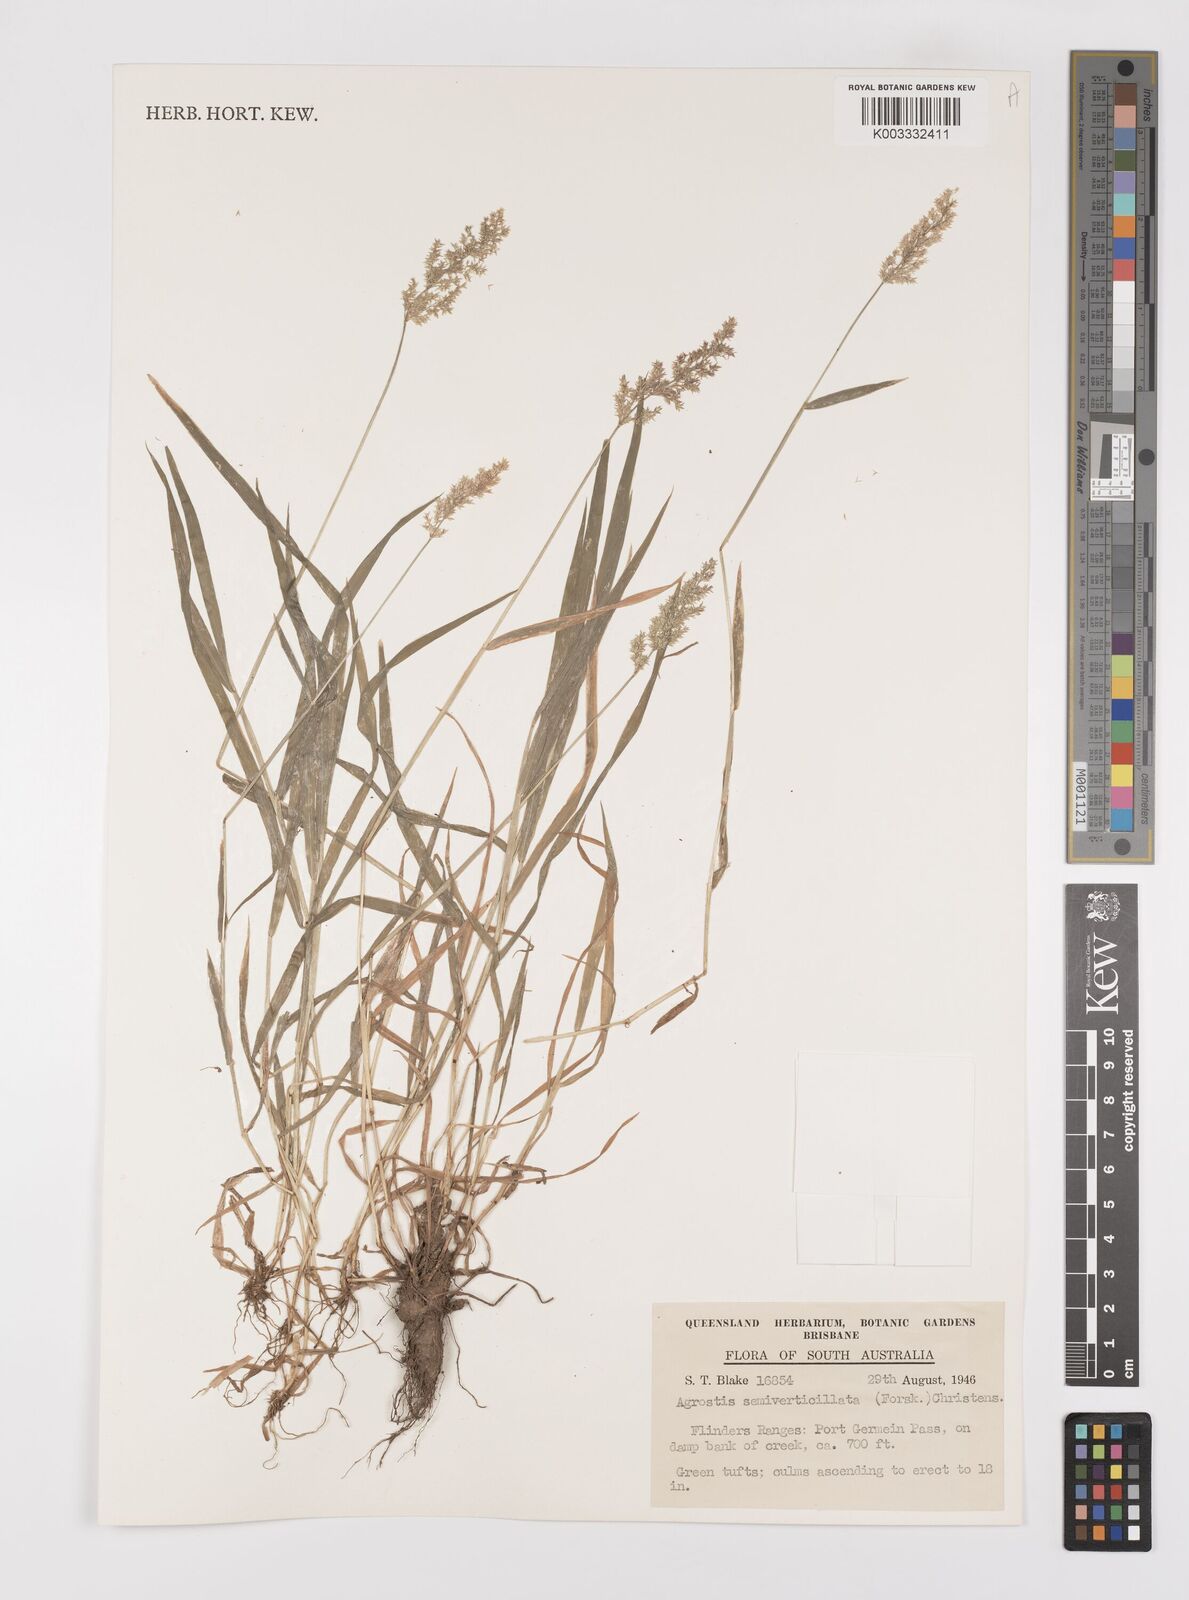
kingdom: Plantae
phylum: Tracheophyta
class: Liliopsida
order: Poales
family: Poaceae
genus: Polypogon
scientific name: Polypogon viridis
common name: Water bent
